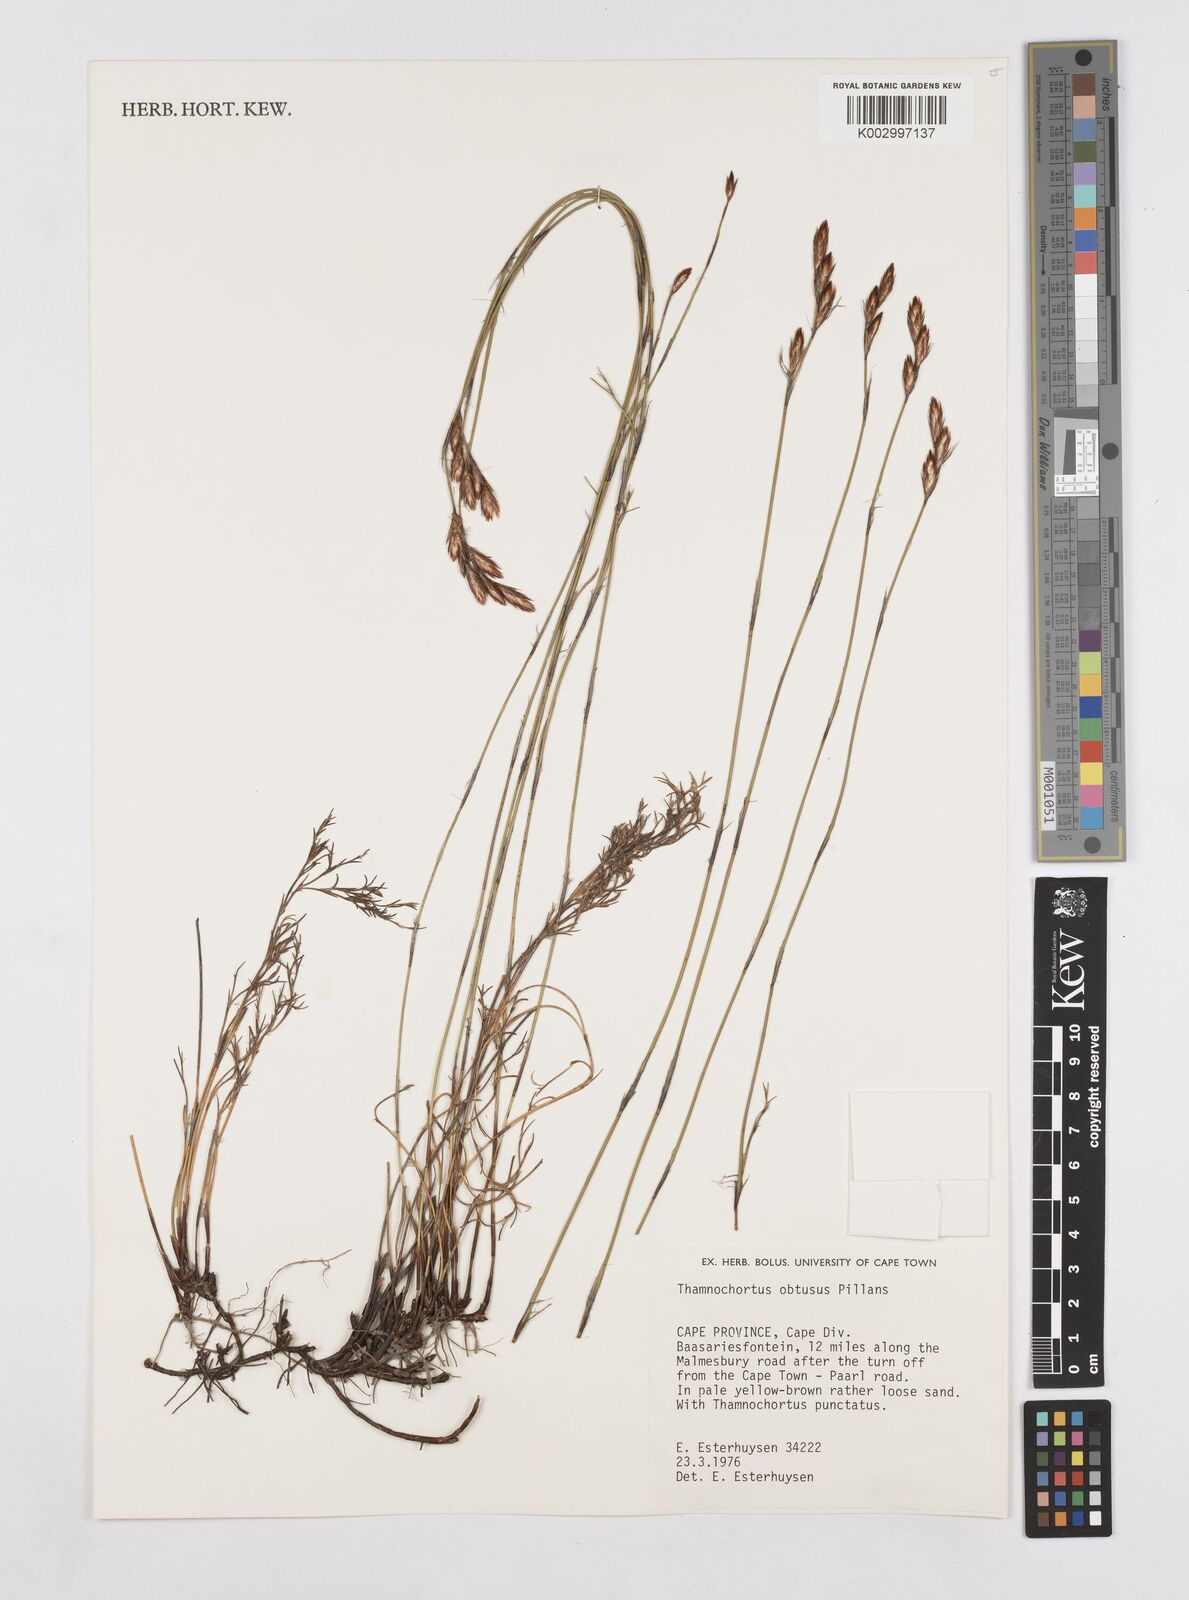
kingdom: Plantae
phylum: Tracheophyta
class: Liliopsida
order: Poales
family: Restionaceae
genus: Thamnochortus
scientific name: Thamnochortus obtusus
